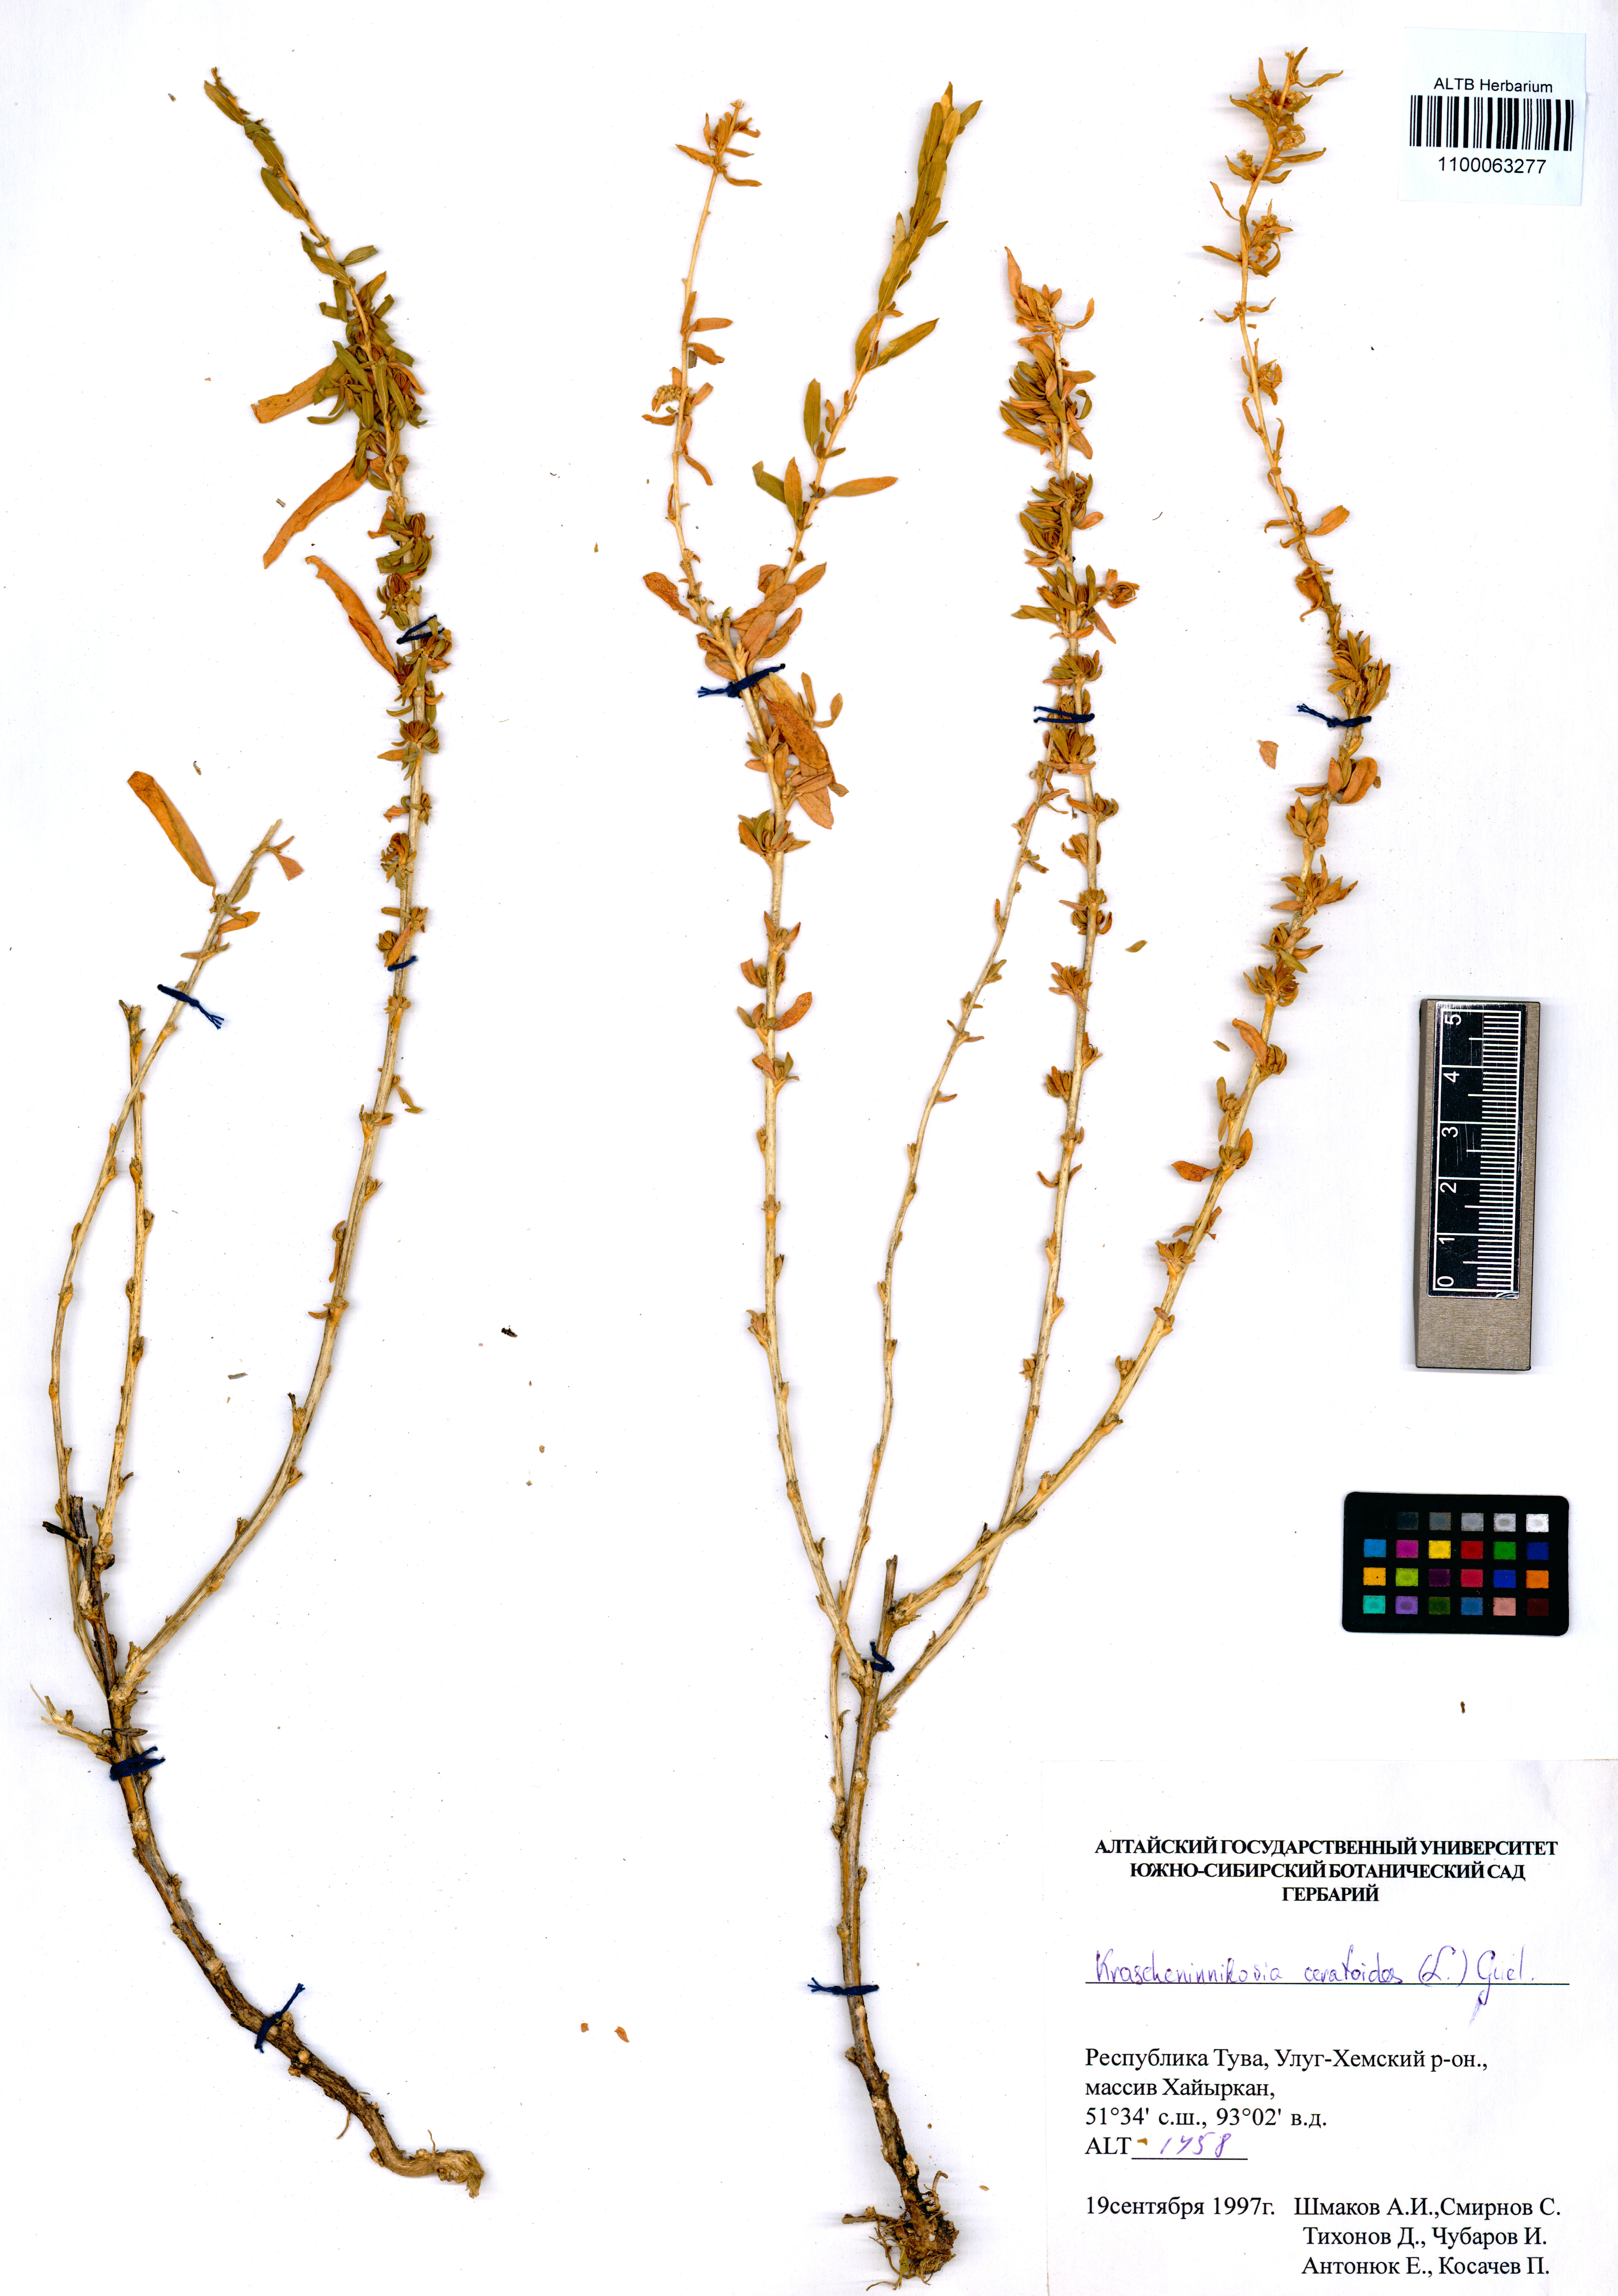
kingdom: Plantae
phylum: Tracheophyta
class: Magnoliopsida
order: Caryophyllales
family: Amaranthaceae
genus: Krascheninnikovia
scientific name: Krascheninnikovia ceratoides
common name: Pamirian winterfat
